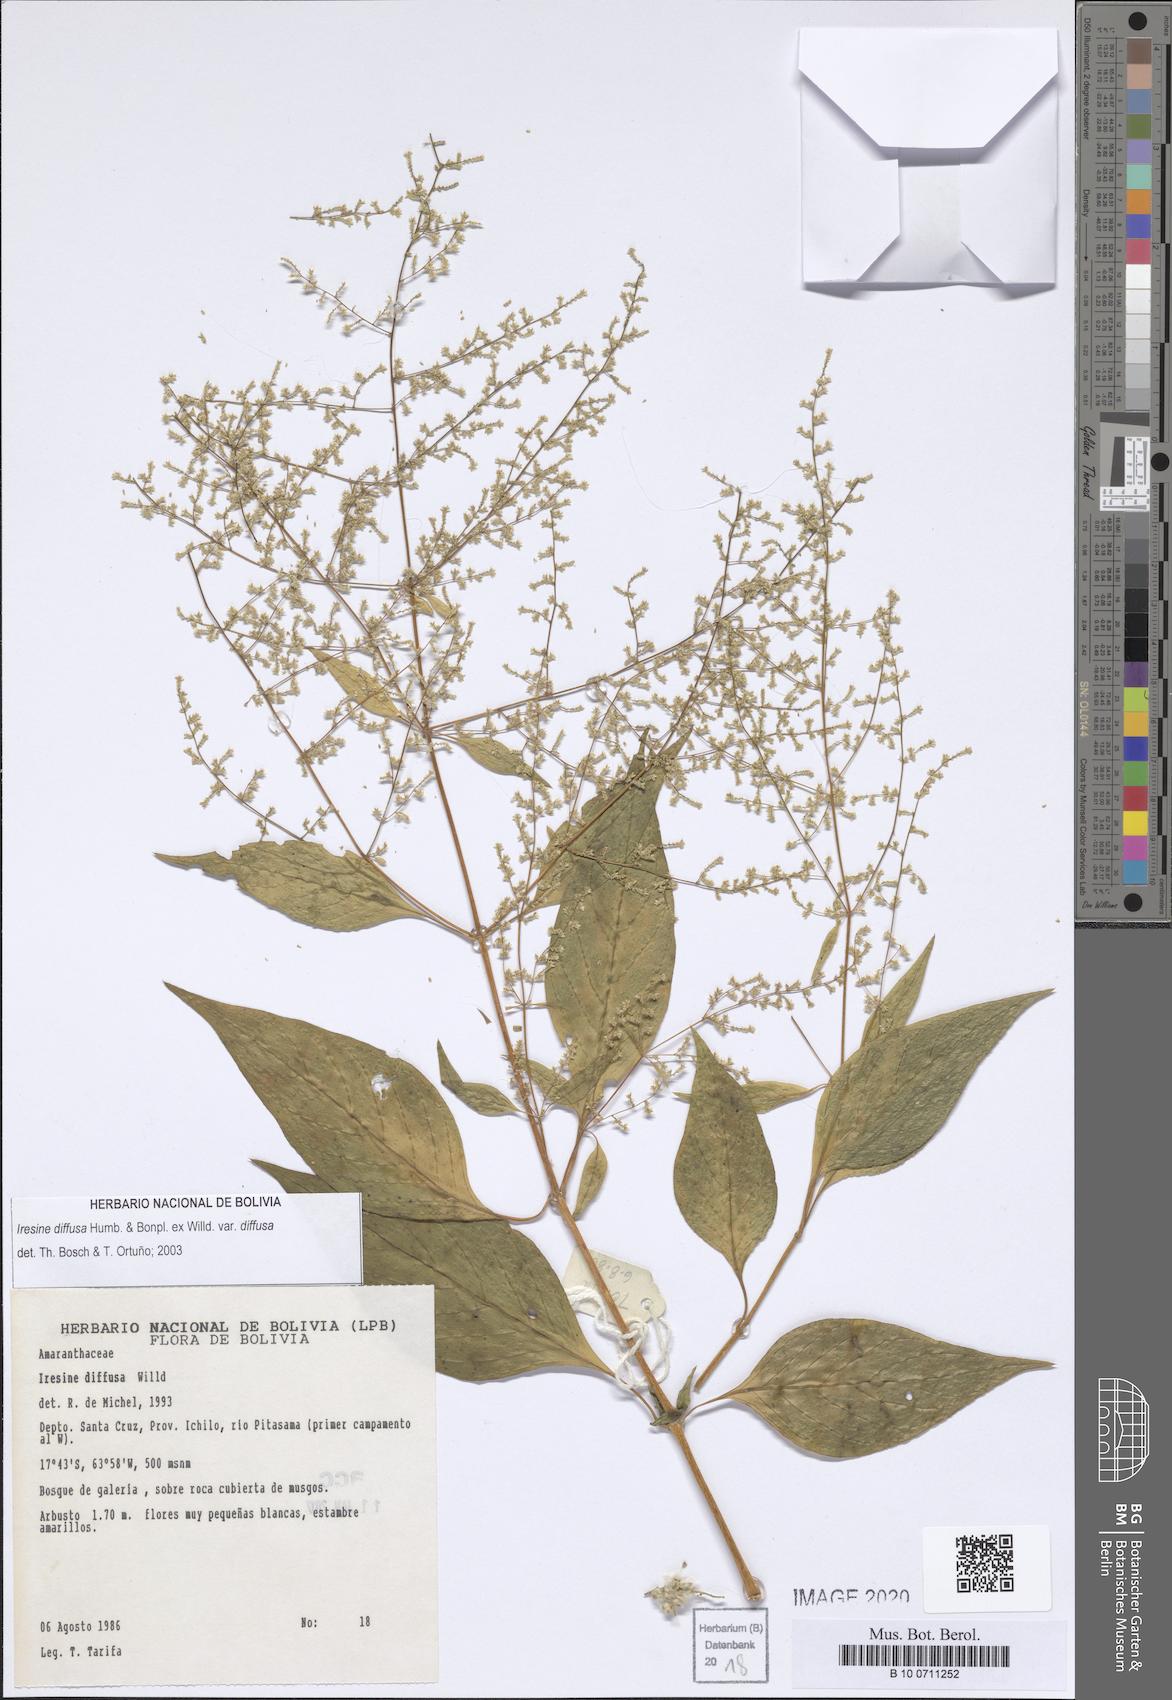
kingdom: Plantae
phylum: Tracheophyta
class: Magnoliopsida
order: Caryophyllales
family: Amaranthaceae
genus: Iresine
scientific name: Iresine diffusa
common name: Juba's-bush
